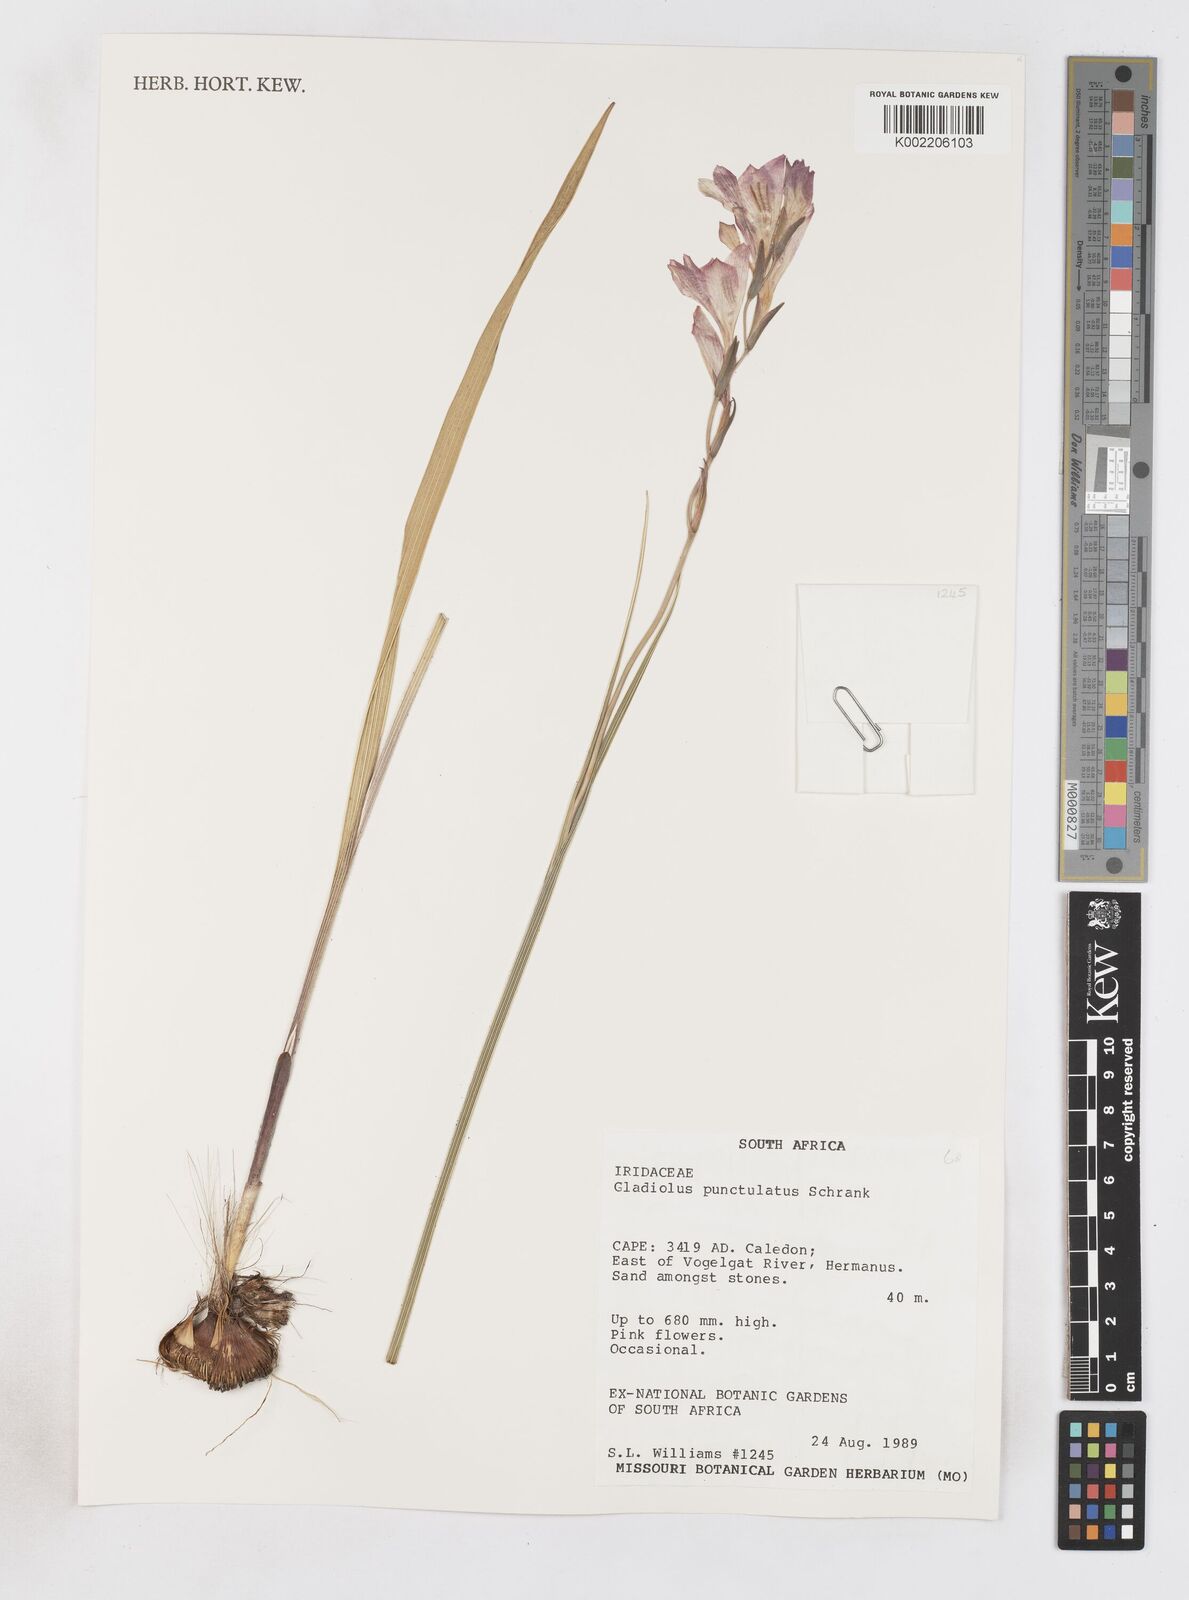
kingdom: Plantae
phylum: Tracheophyta
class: Liliopsida
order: Asparagales
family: Iridaceae
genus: Gladiolus
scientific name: Gladiolus hirsutus
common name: Small pink afrikaner
